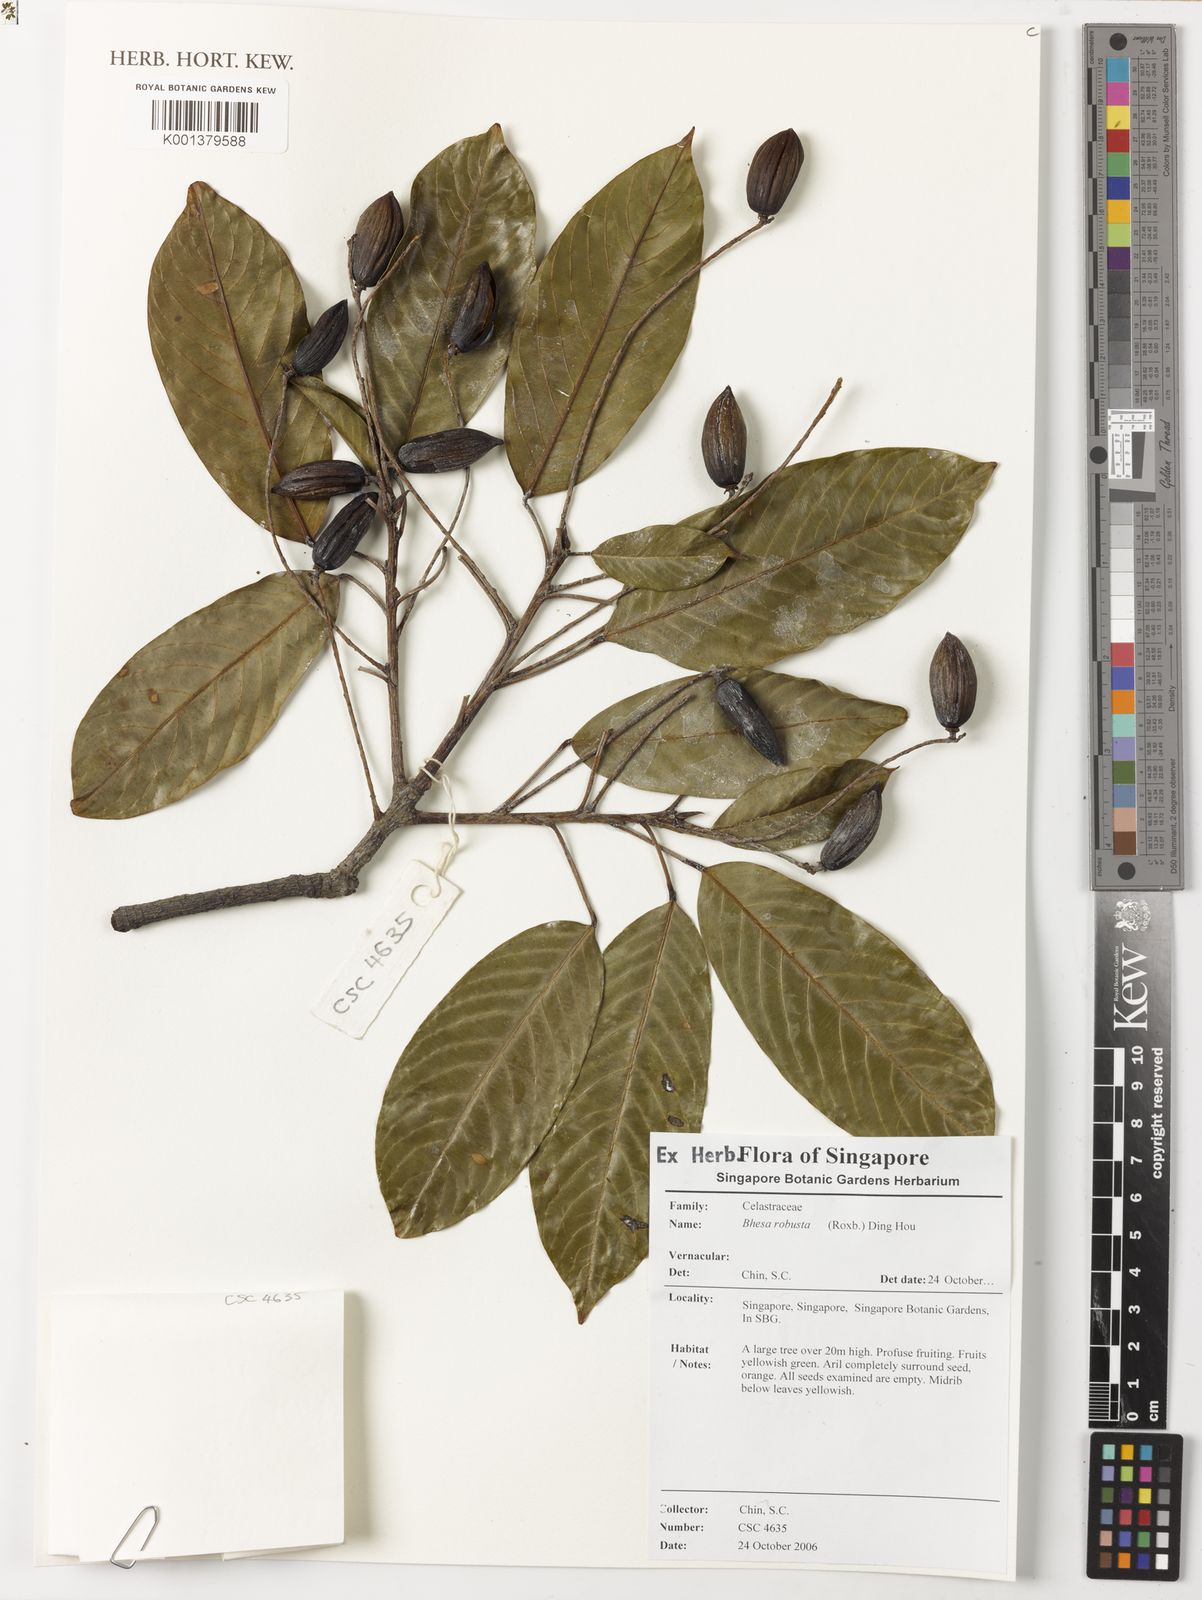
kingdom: Plantae
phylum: Tracheophyta
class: Magnoliopsida
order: Malpighiales
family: Centroplacaceae
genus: Bhesa
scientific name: Bhesa robusta
